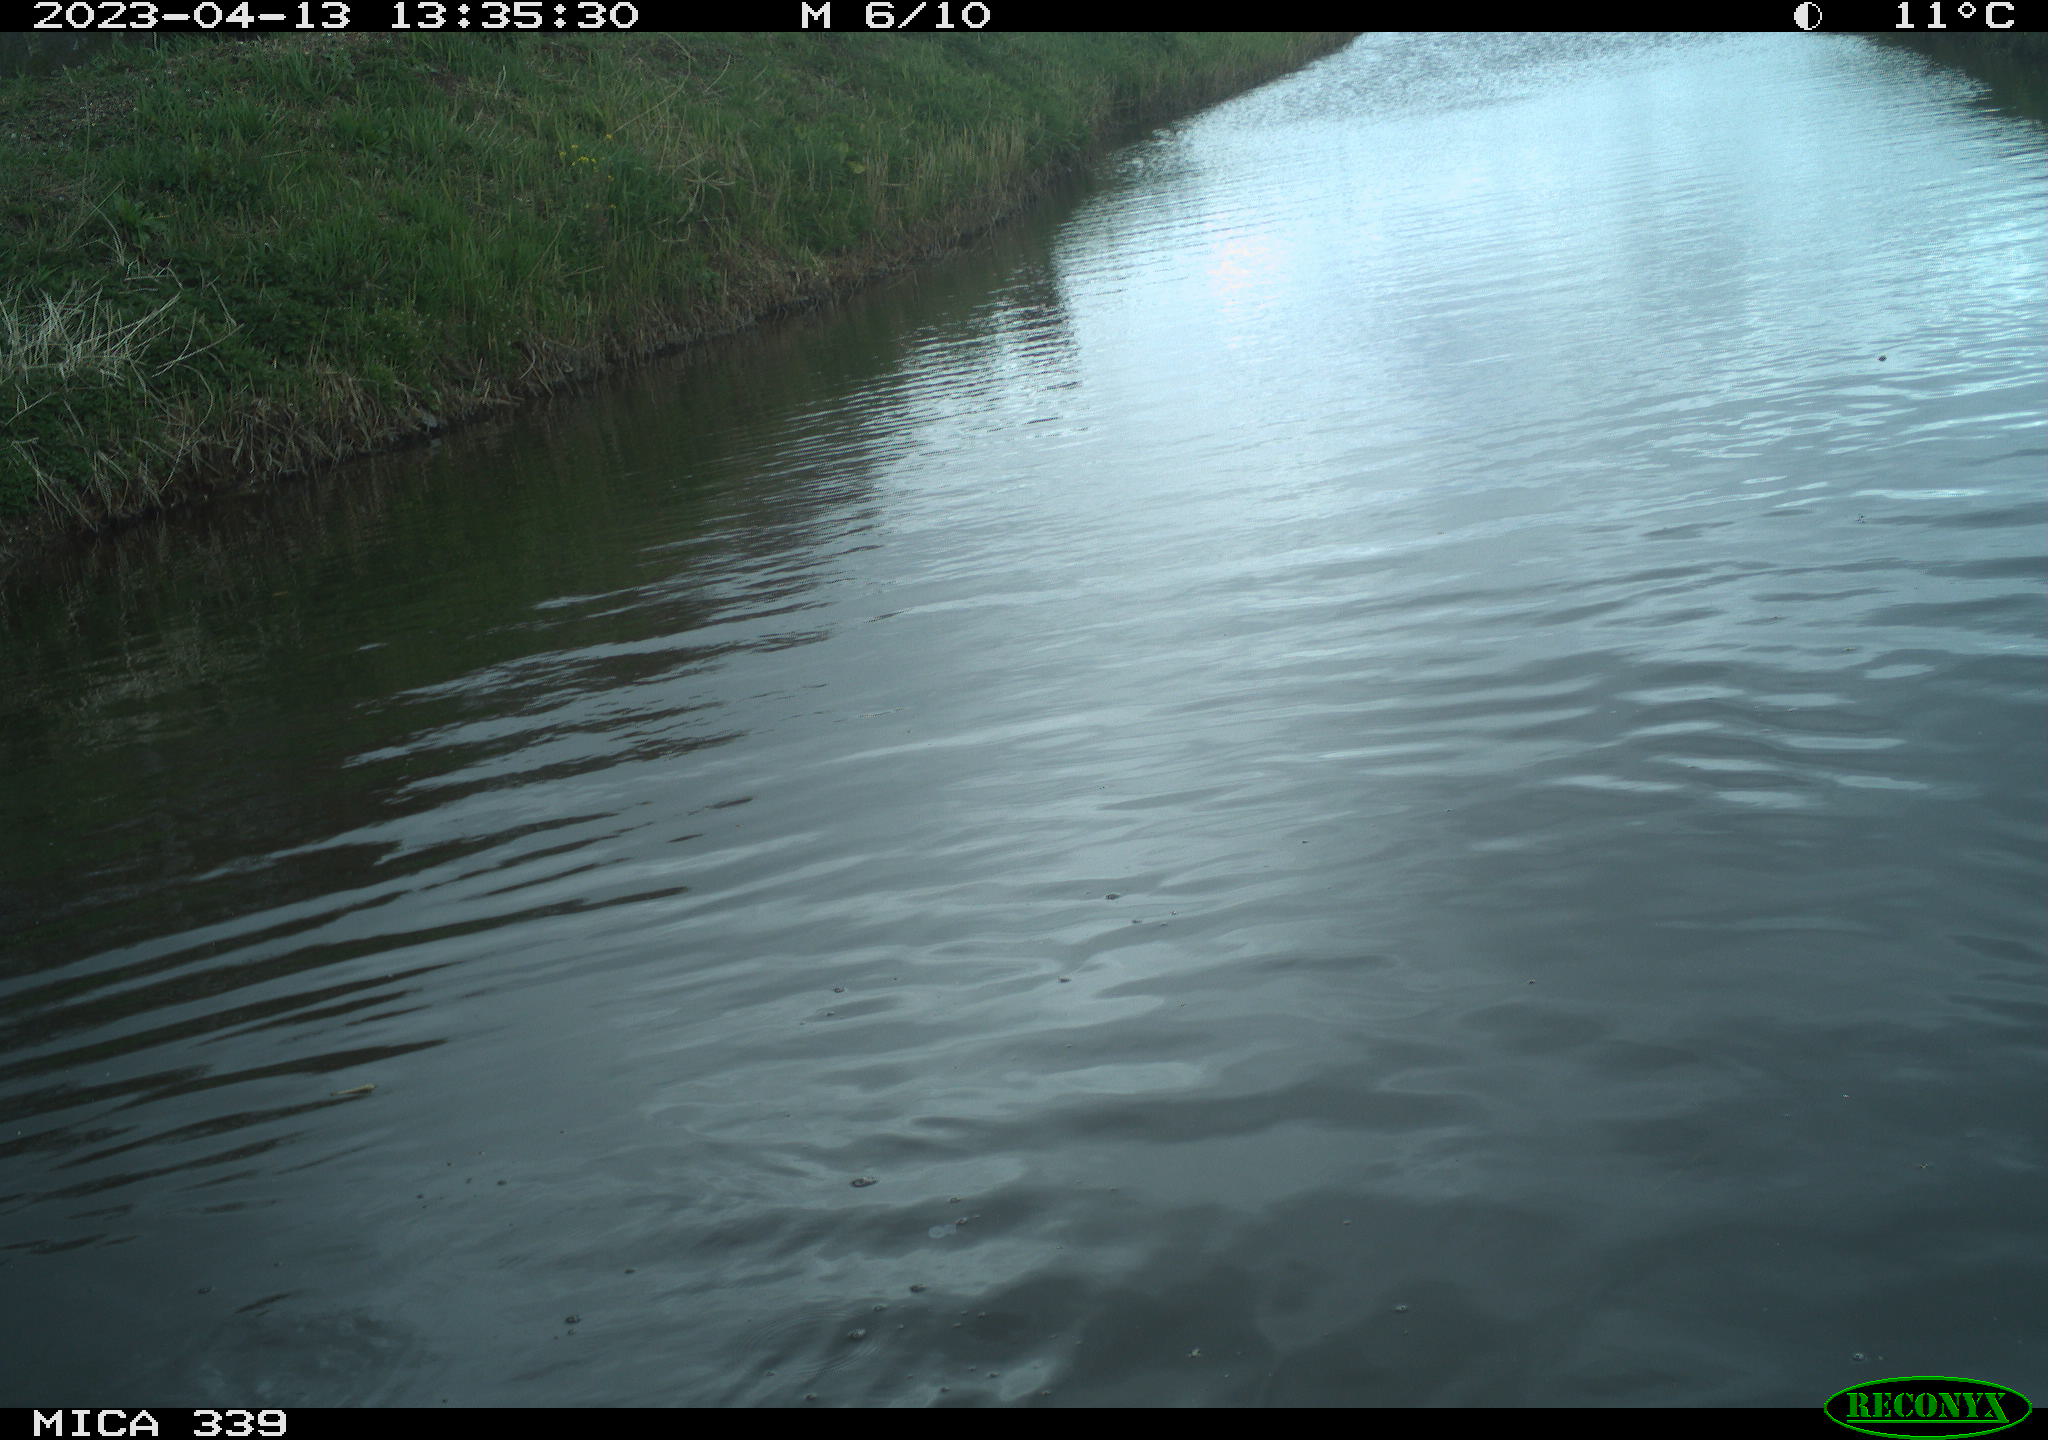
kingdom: Animalia
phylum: Chordata
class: Aves
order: Pelecaniformes
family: Ardeidae
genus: Ardea
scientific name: Ardea
